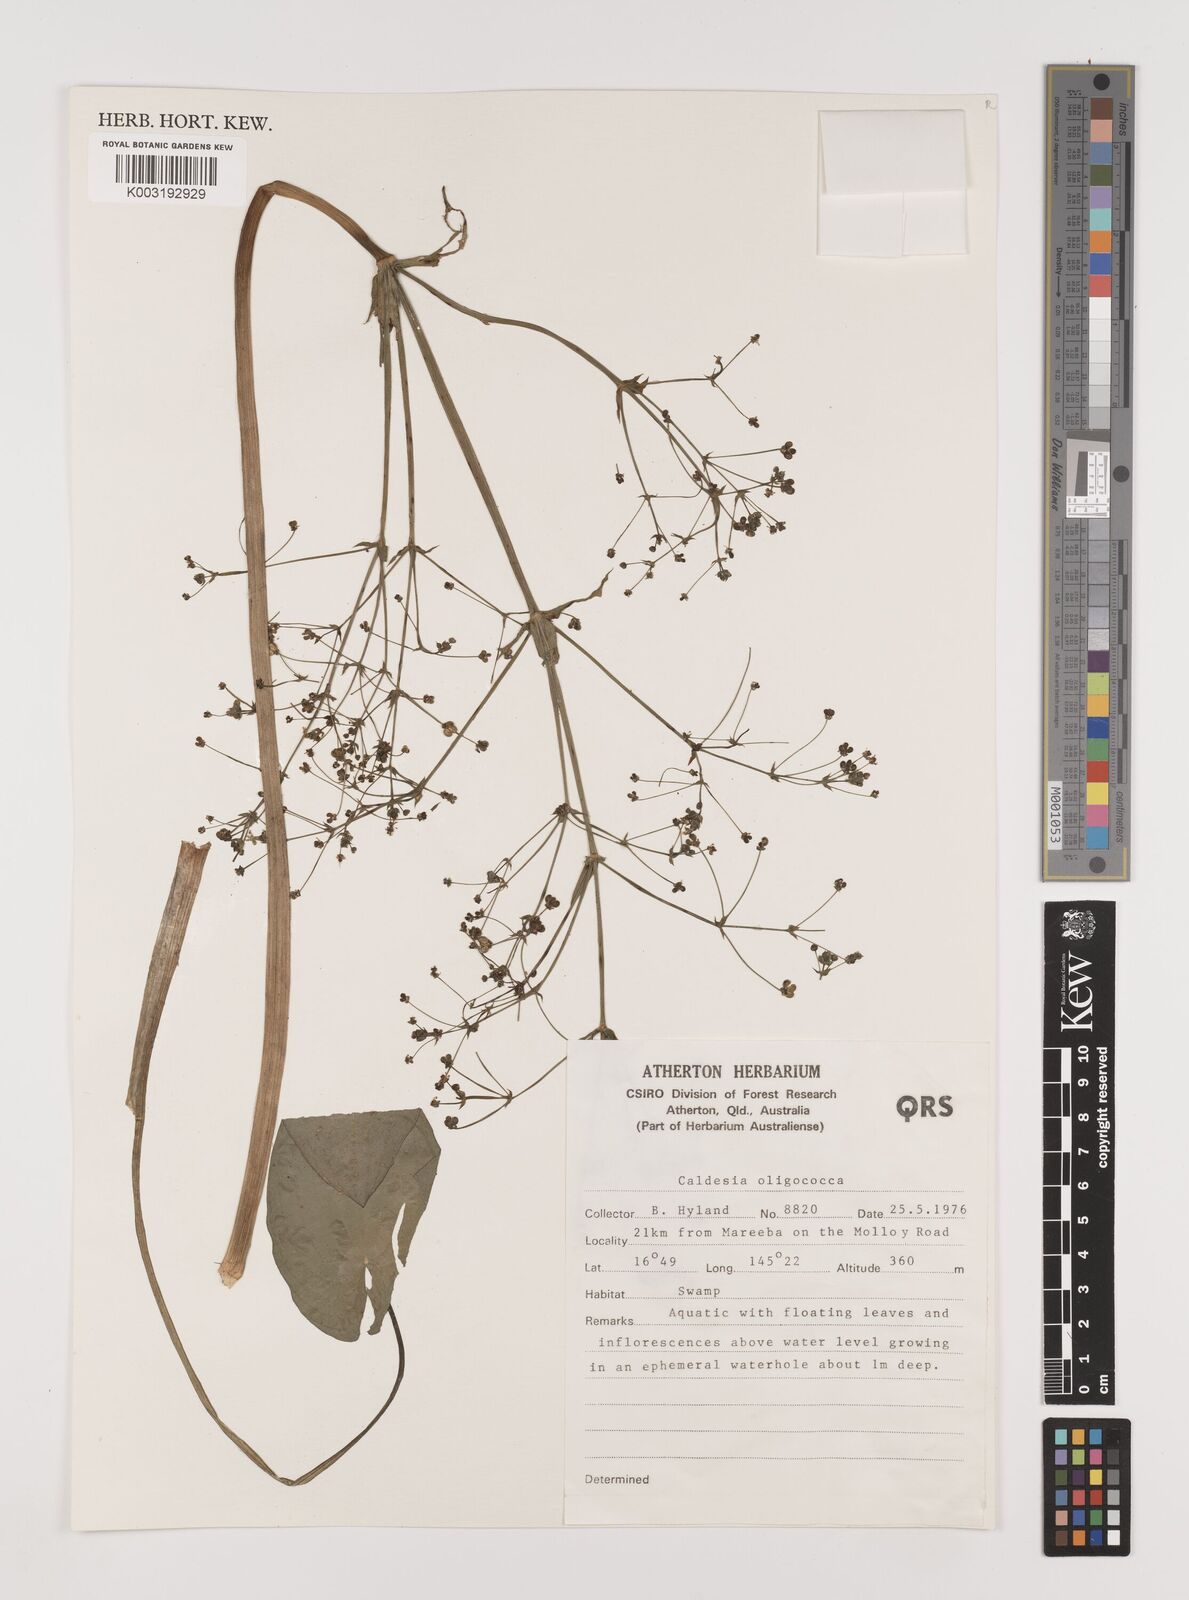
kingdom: Plantae
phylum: Tracheophyta
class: Liliopsida
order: Alismatales
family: Alismataceae
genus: Albidella
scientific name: Albidella oligococca
